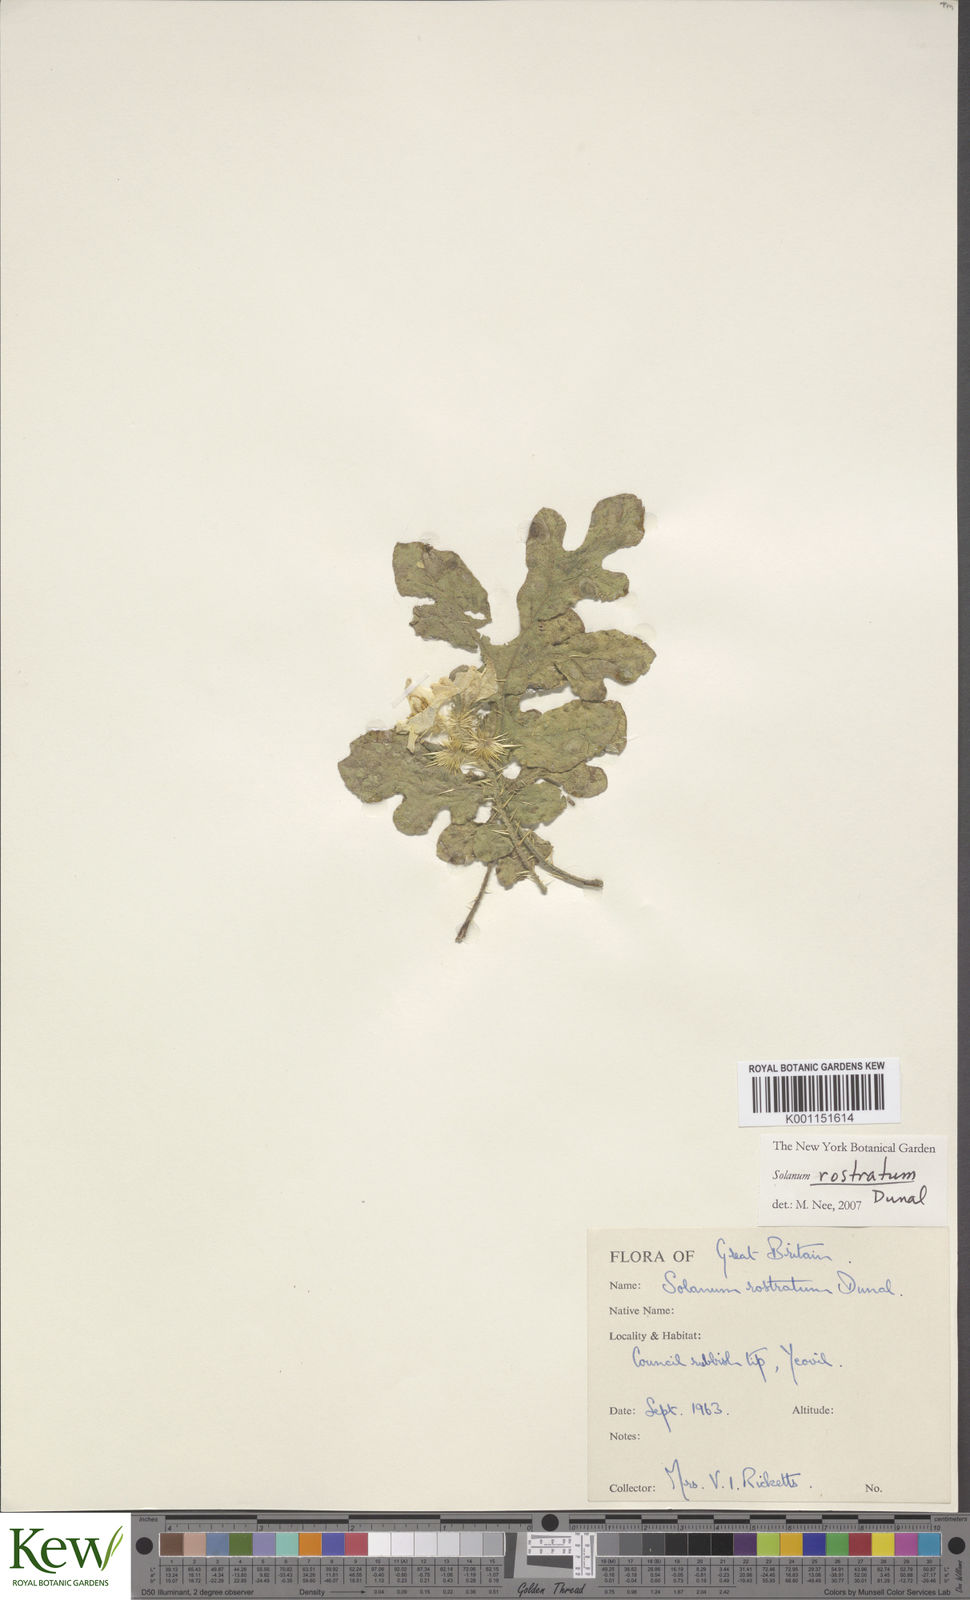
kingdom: Plantae
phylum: Tracheophyta
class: Magnoliopsida
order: Solanales
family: Solanaceae
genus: Solanum
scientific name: Solanum angustifolium
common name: Buffalobur nightshade
